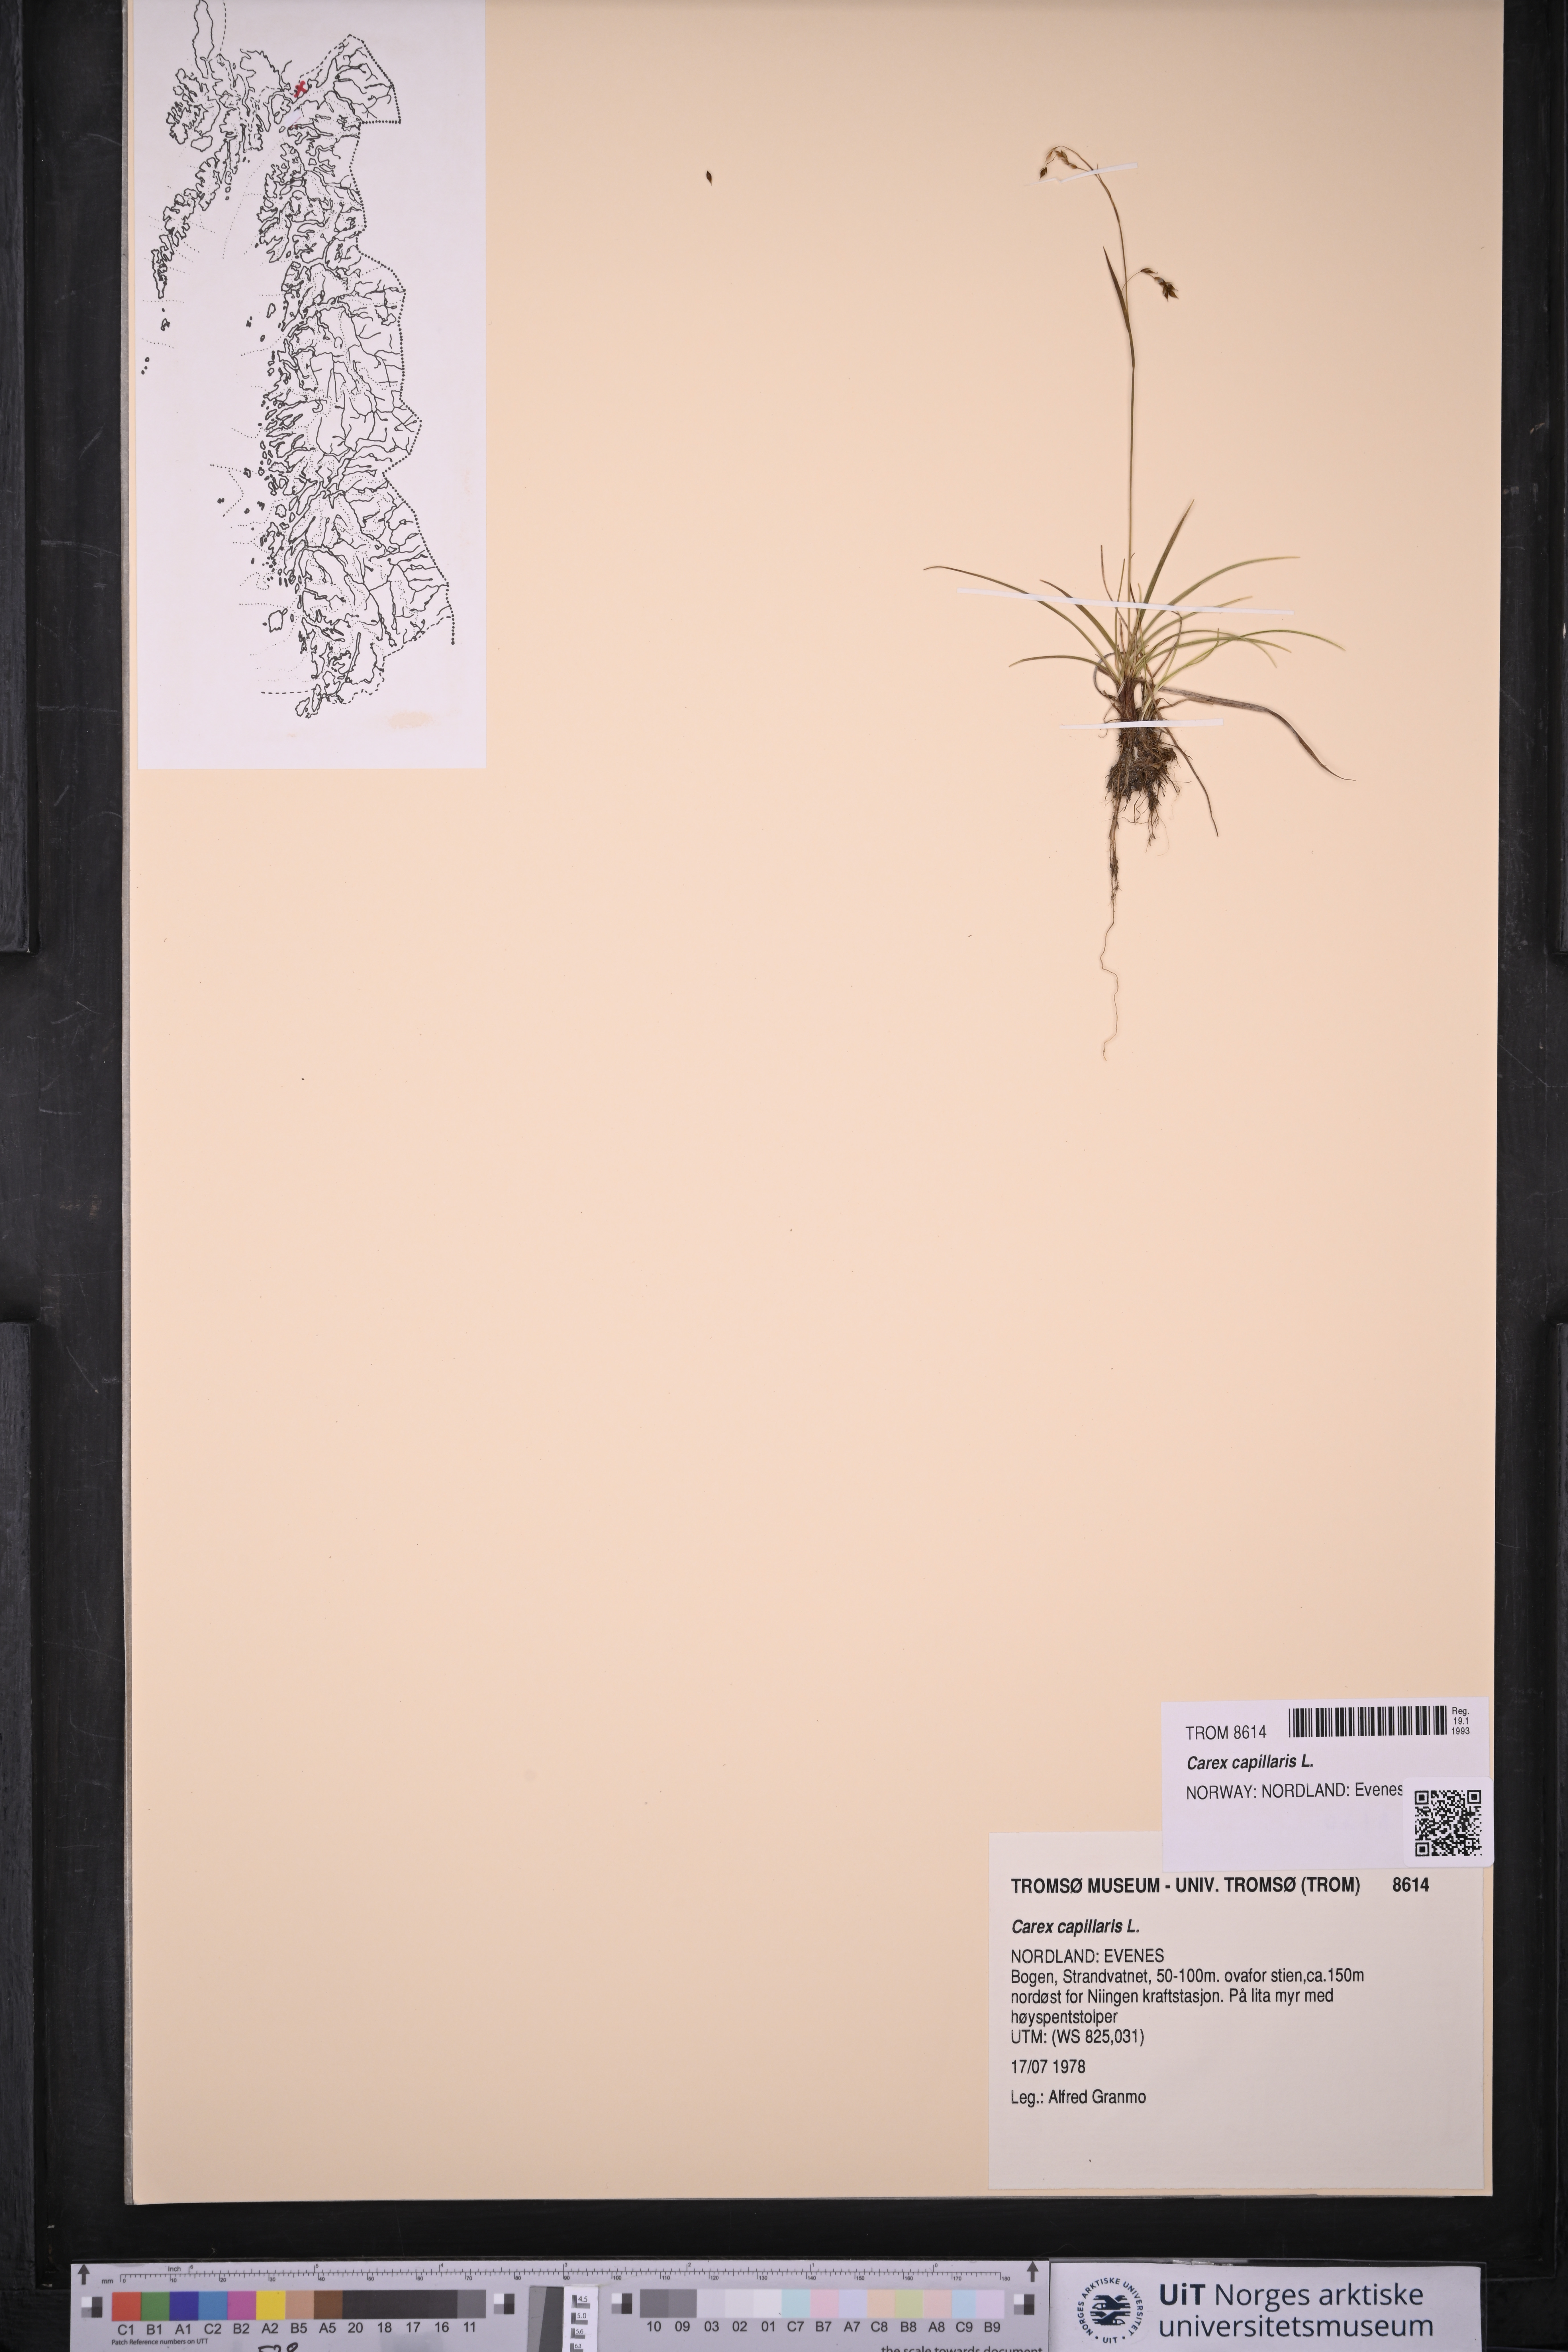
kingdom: Plantae
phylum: Tracheophyta
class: Liliopsida
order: Poales
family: Cyperaceae
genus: Carex
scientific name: Carex capillaris
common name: Hair sedge
